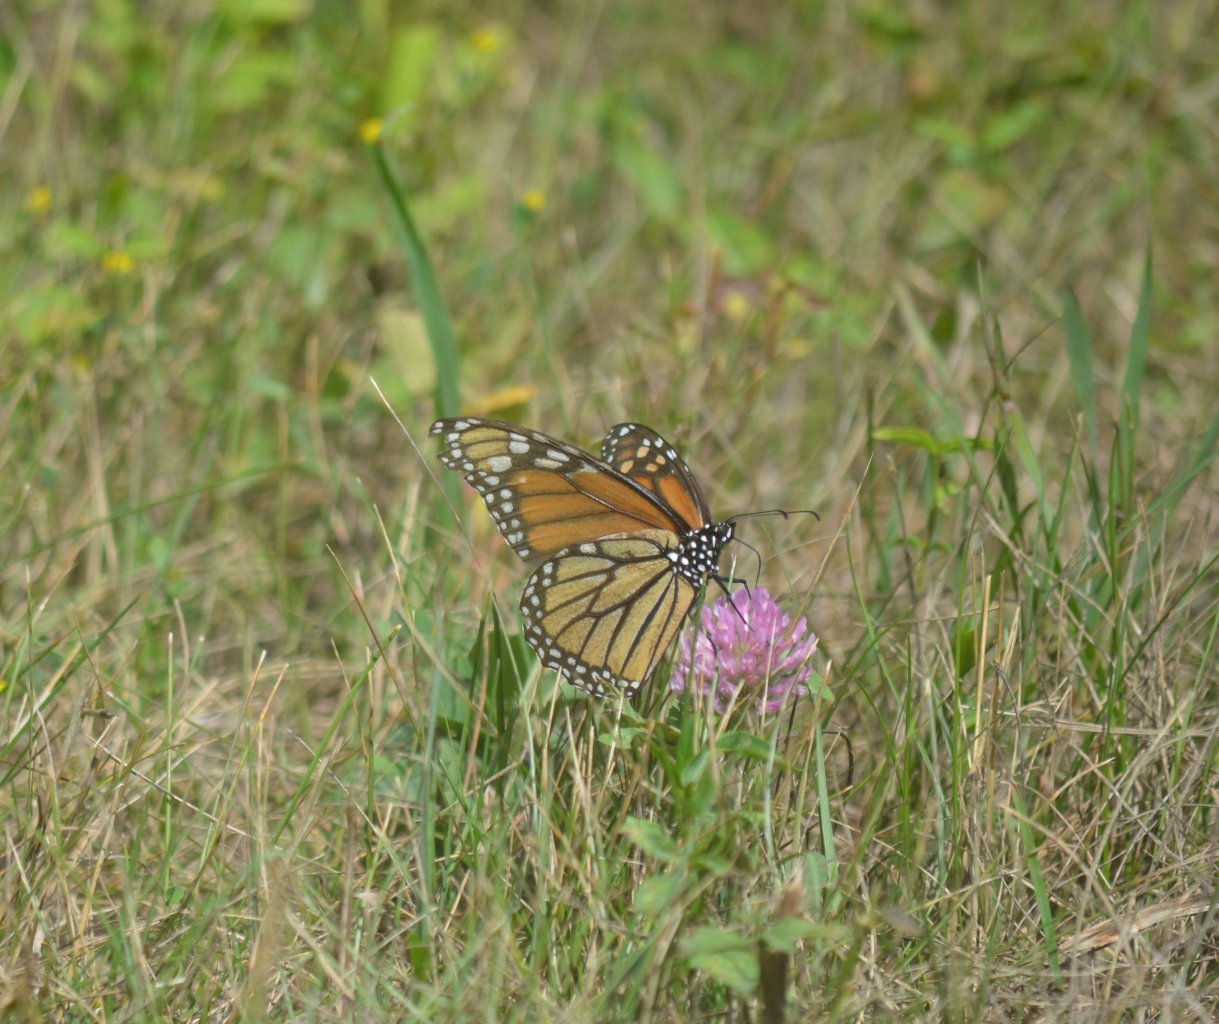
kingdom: Animalia
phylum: Arthropoda
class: Insecta
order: Lepidoptera
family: Nymphalidae
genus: Danaus
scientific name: Danaus plexippus
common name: Monarch
